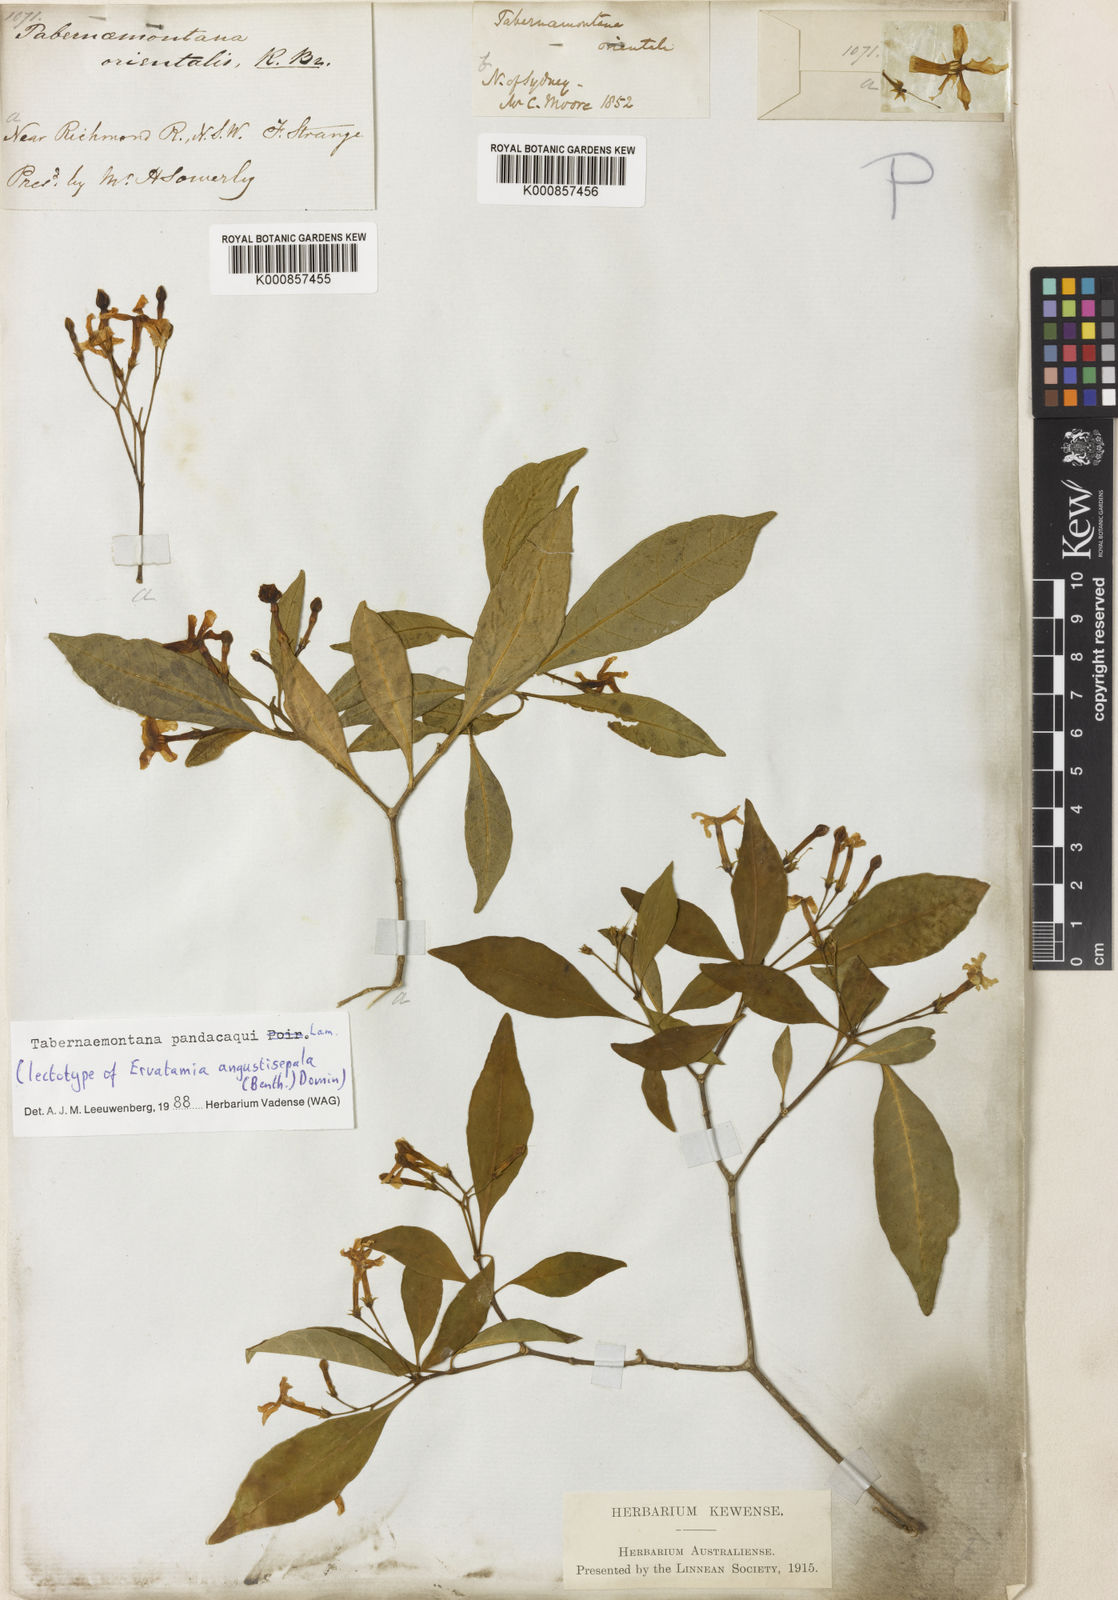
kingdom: Plantae
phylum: Tracheophyta
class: Magnoliopsida
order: Gentianales
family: Apocynaceae
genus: Tabernaemontana
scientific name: Tabernaemontana
